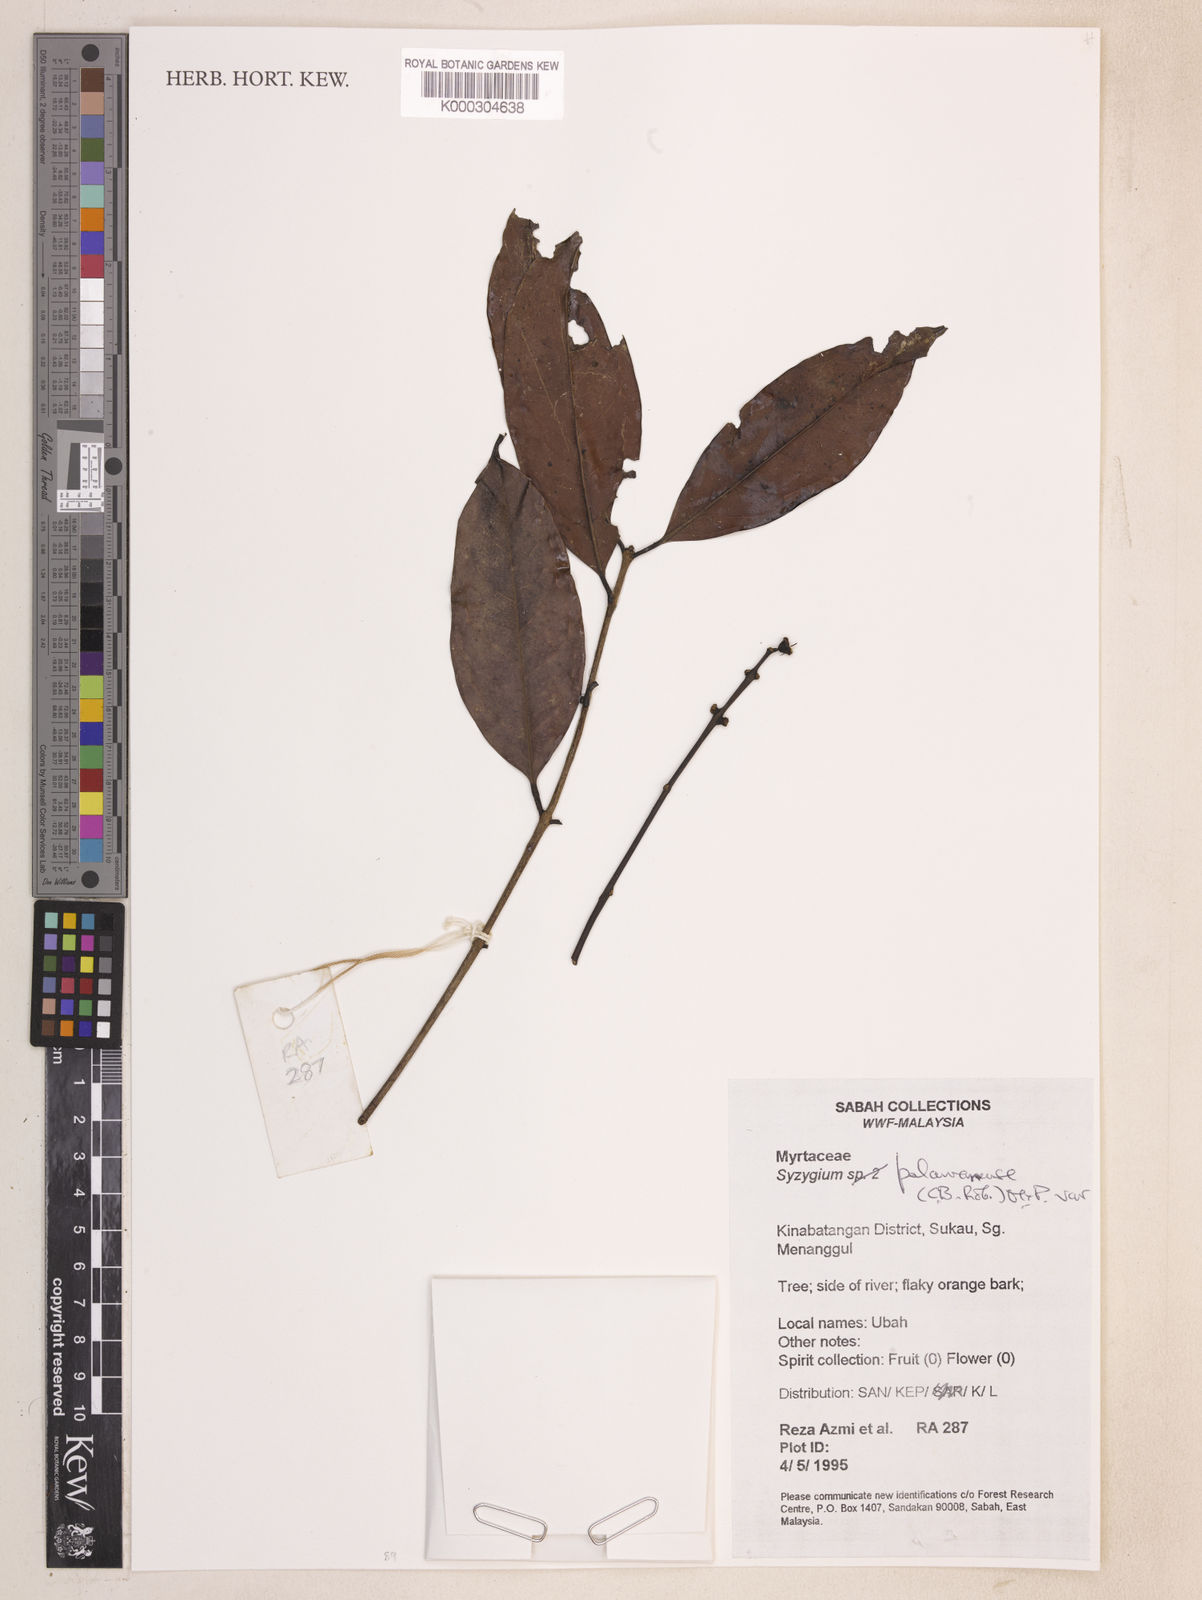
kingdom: Plantae
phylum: Tracheophyta
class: Magnoliopsida
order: Myrtales
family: Myrtaceae
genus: Syzygium
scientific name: Syzygium palawanense
